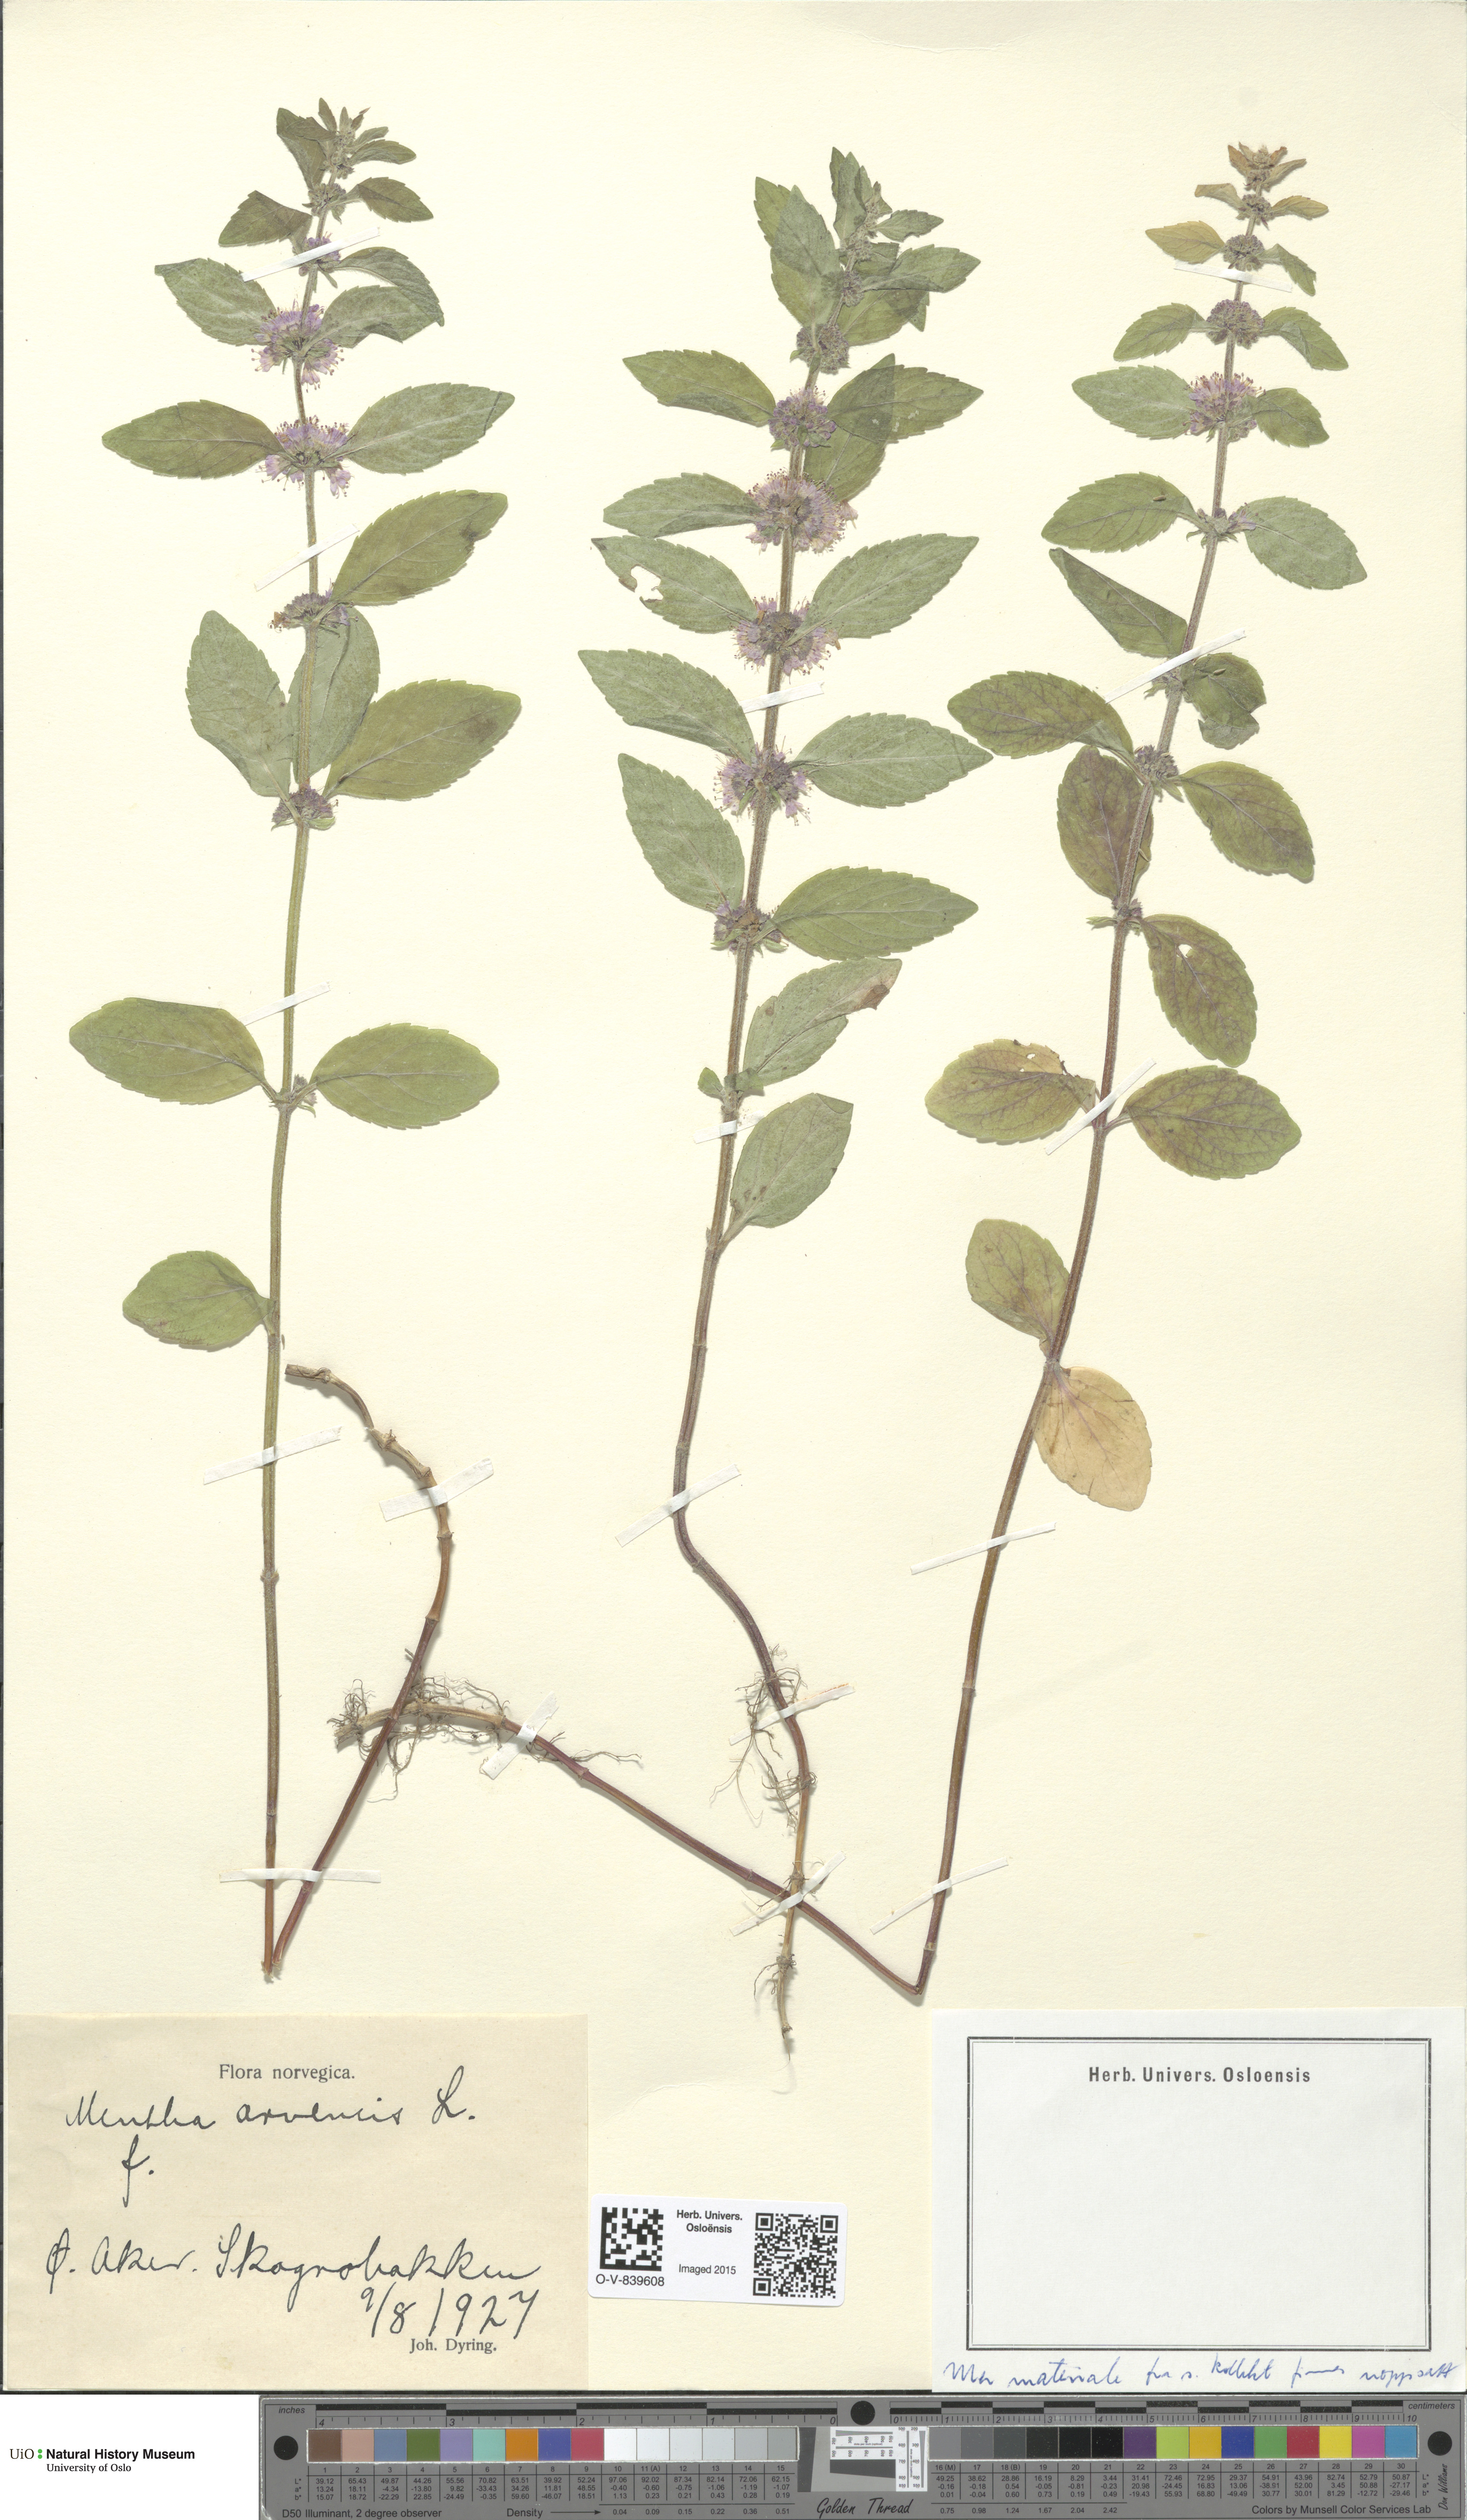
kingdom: Plantae
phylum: Tracheophyta
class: Magnoliopsida
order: Lamiales
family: Lamiaceae
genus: Mentha
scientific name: Mentha arvensis
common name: Corn mint
